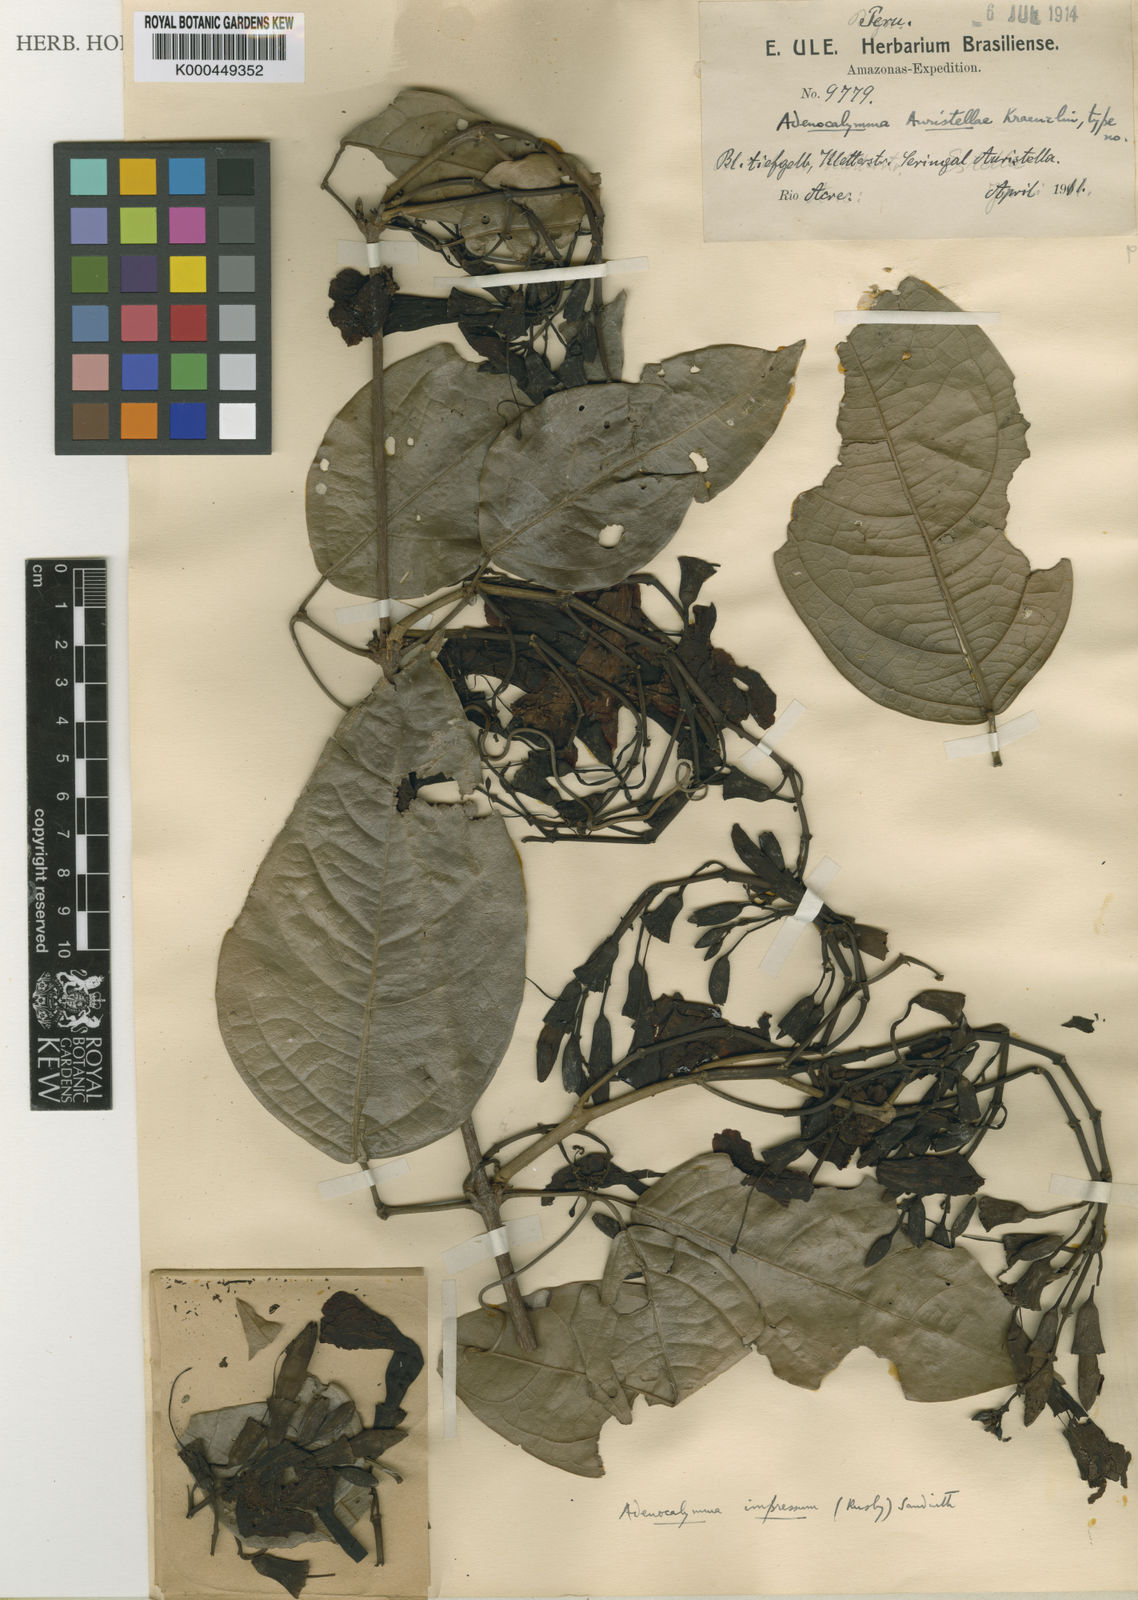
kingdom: Plantae
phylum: Tracheophyta
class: Magnoliopsida
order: Lamiales
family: Bignoniaceae
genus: Adenocalymma
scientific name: Adenocalymma impressum
